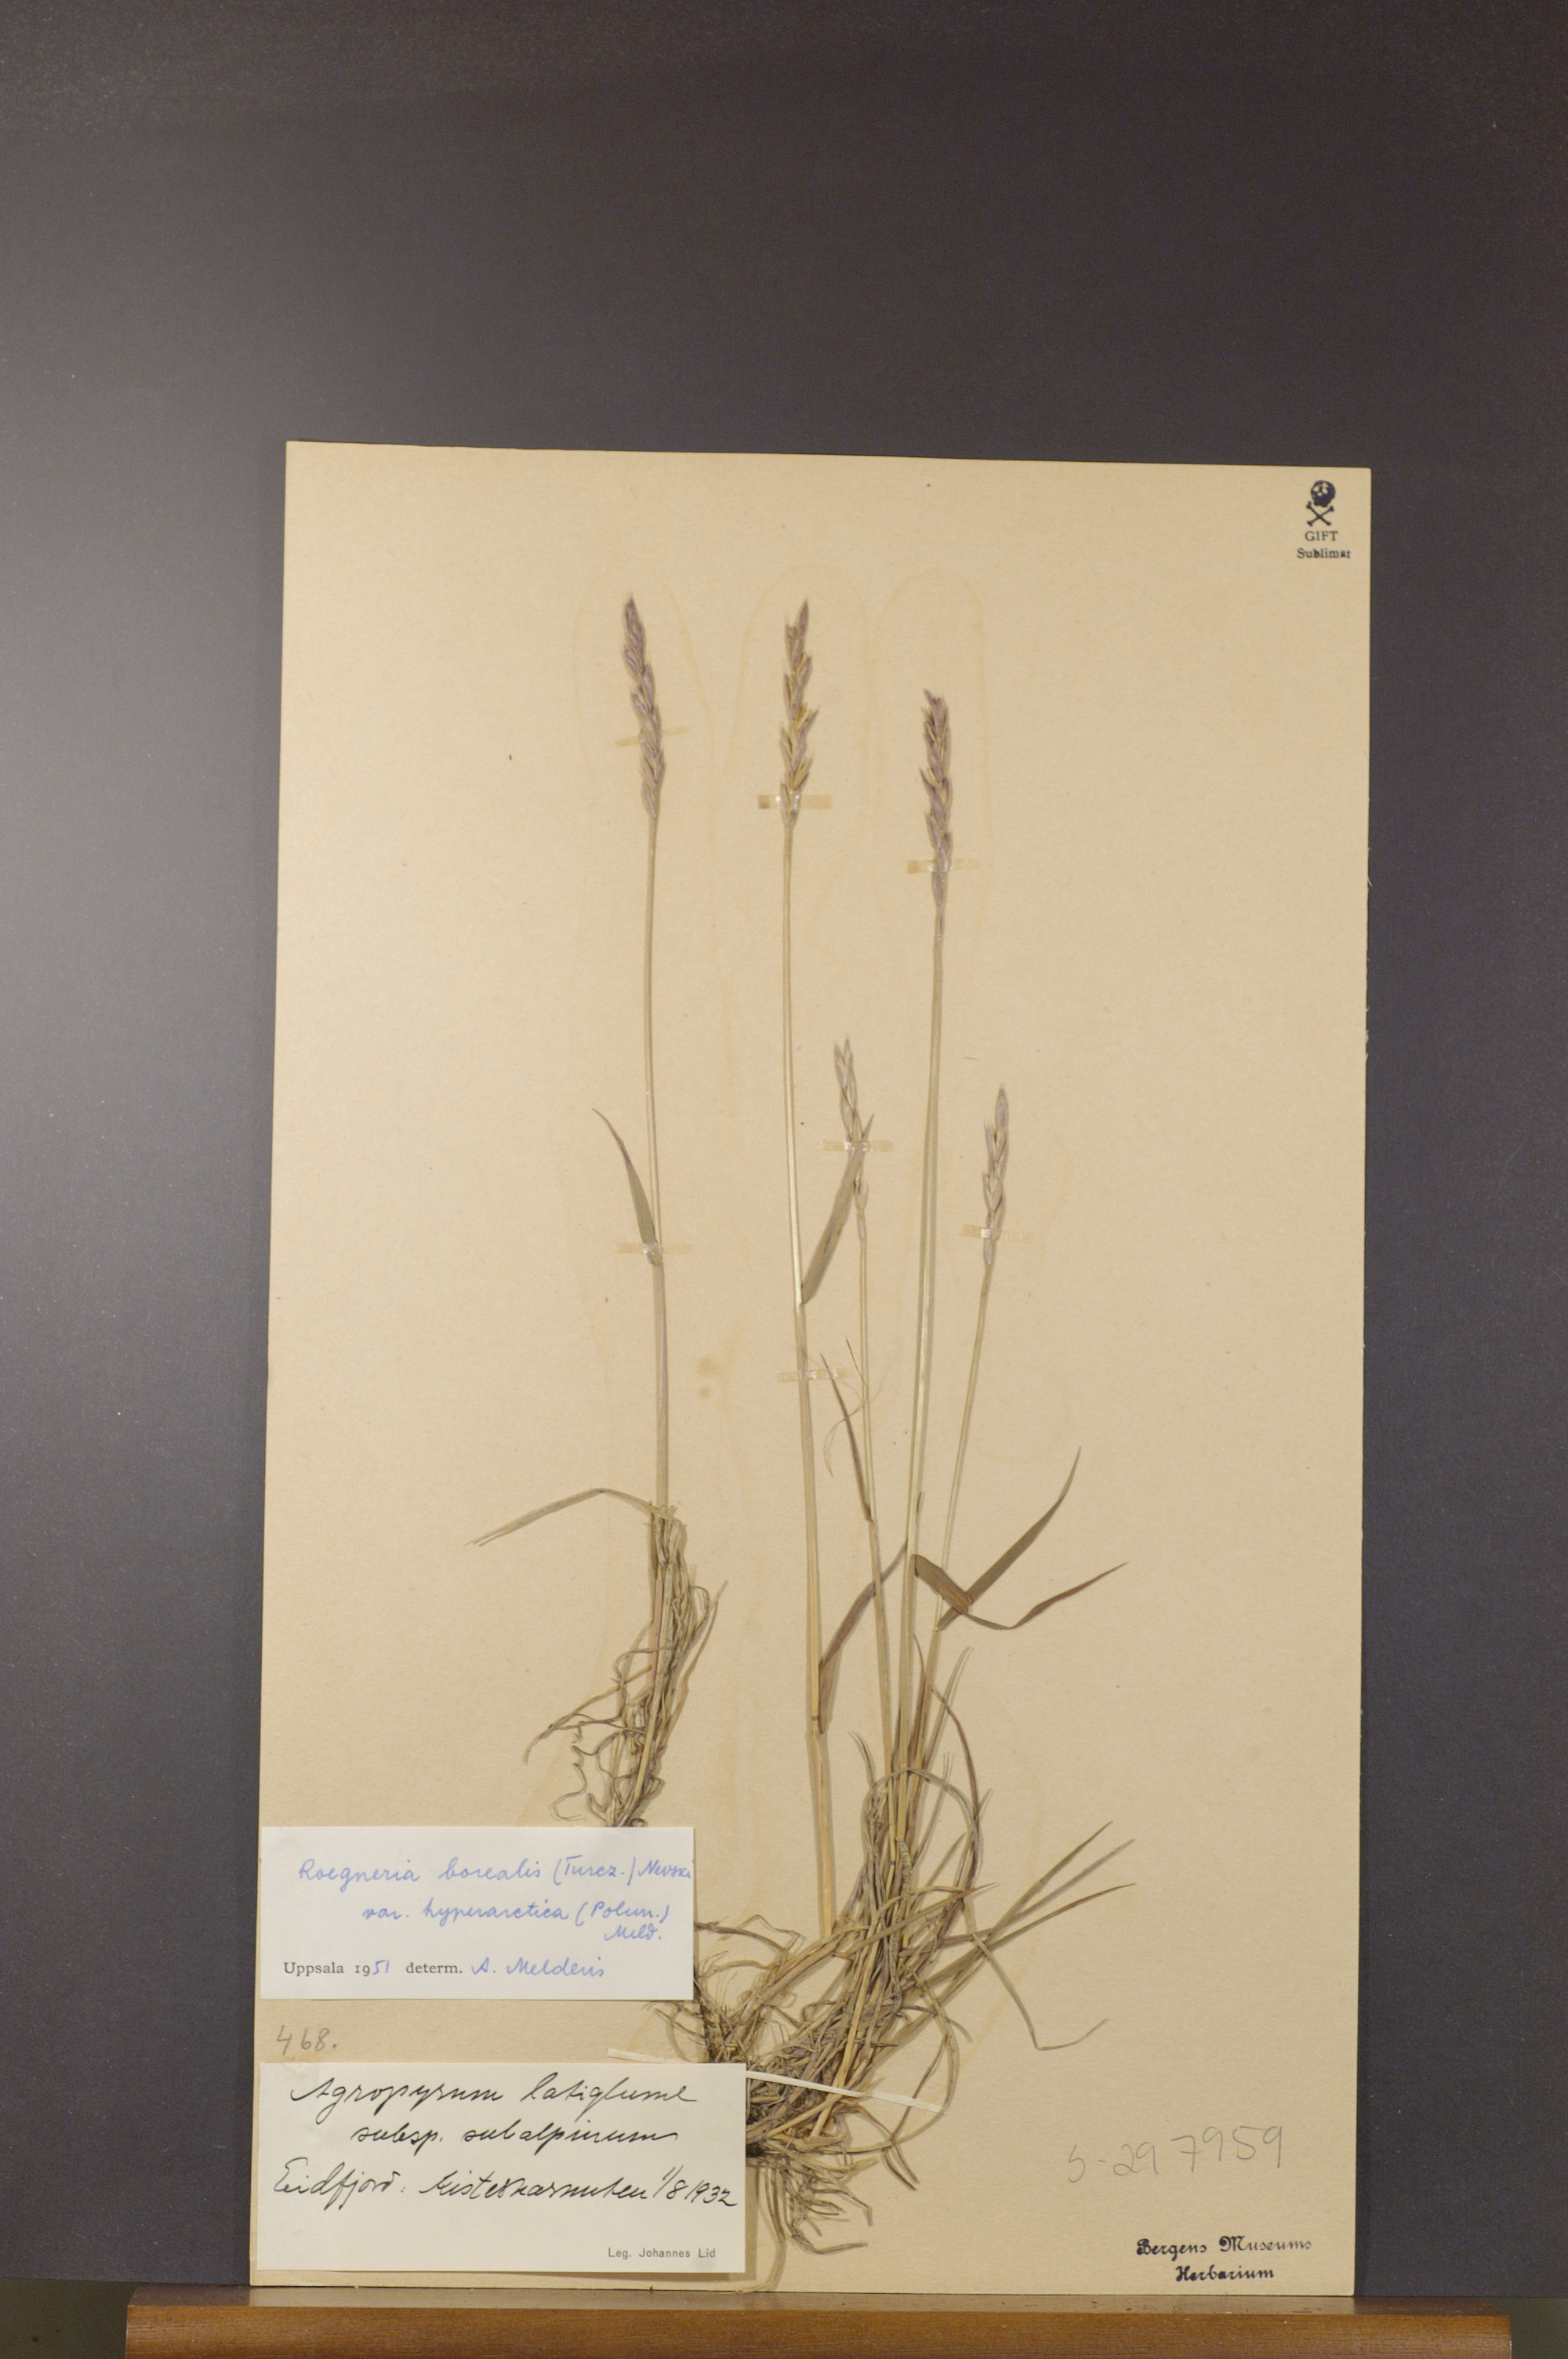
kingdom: Plantae
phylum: Tracheophyta
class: Liliopsida
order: Poales
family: Poaceae
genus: Elymus
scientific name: Elymus macrourus
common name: Northern wheatgrass
